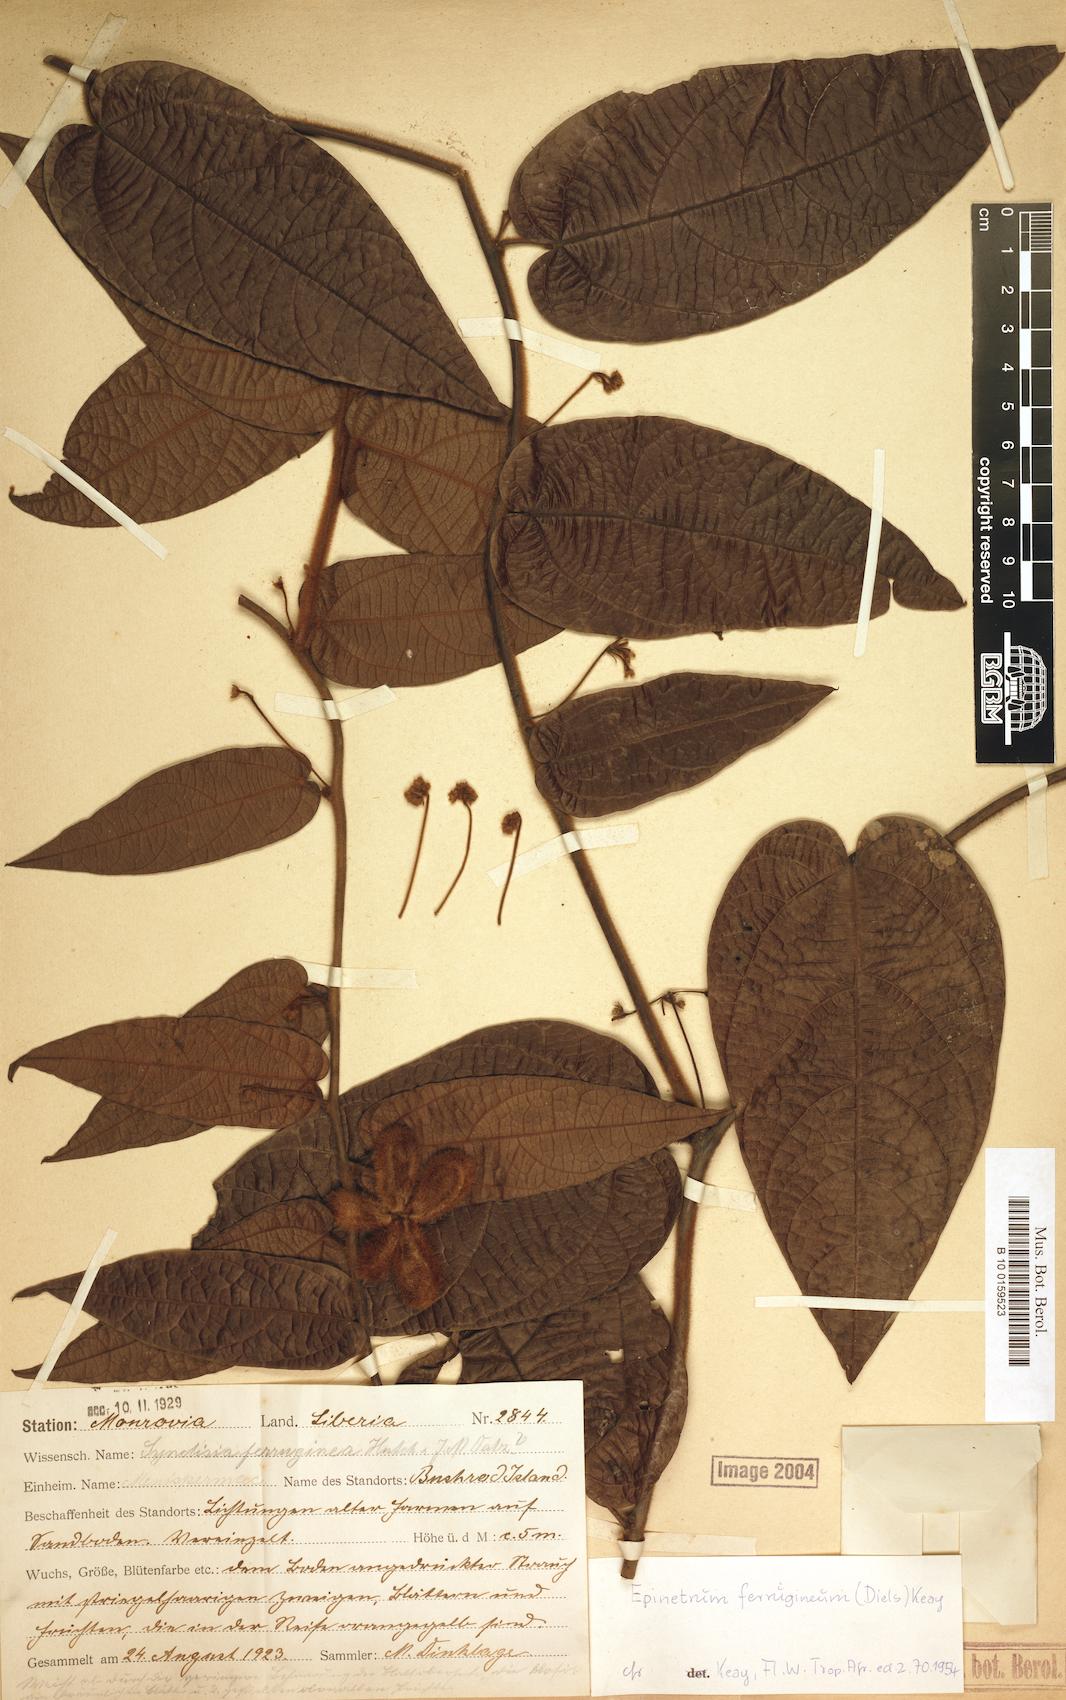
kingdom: Plantae
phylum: Tracheophyta
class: Magnoliopsida
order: Ranunculales
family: Menispermaceae
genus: Albertisia
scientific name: Albertisia ferruginea
